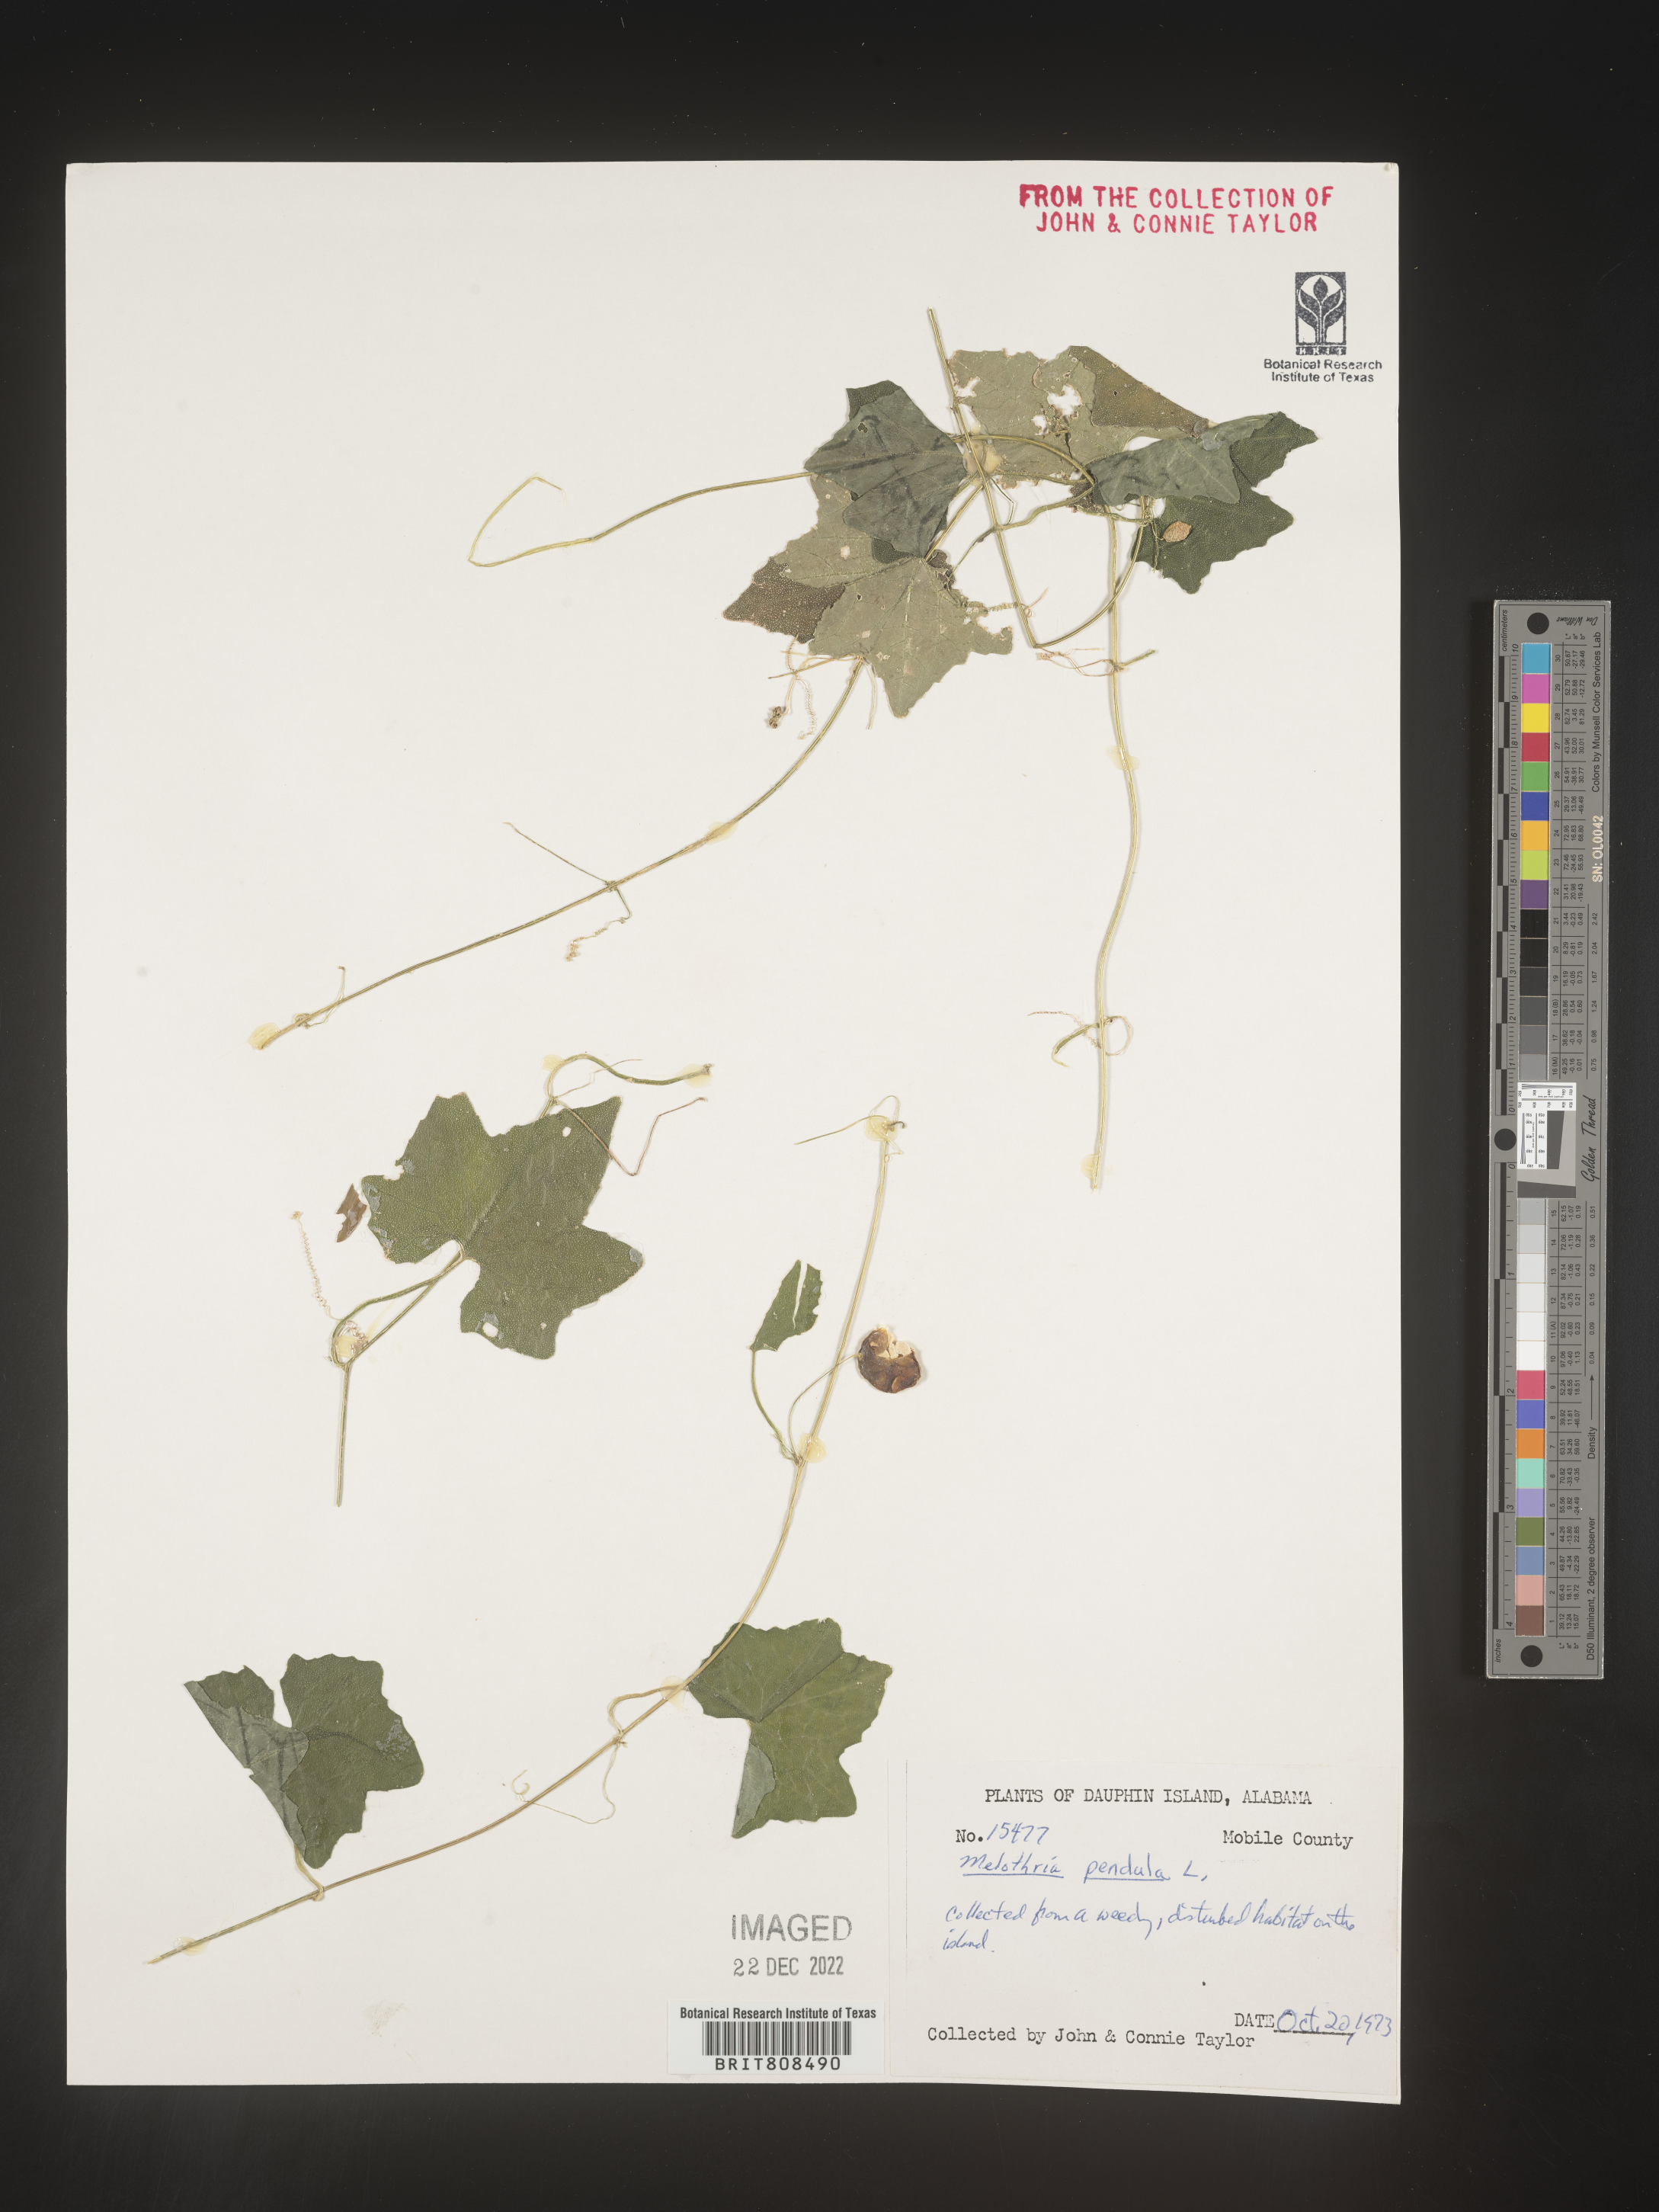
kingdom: Plantae
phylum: Tracheophyta
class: Magnoliopsida
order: Cucurbitales
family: Cucurbitaceae
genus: Melothria
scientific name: Melothria pendula
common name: Creeping-cucumber
